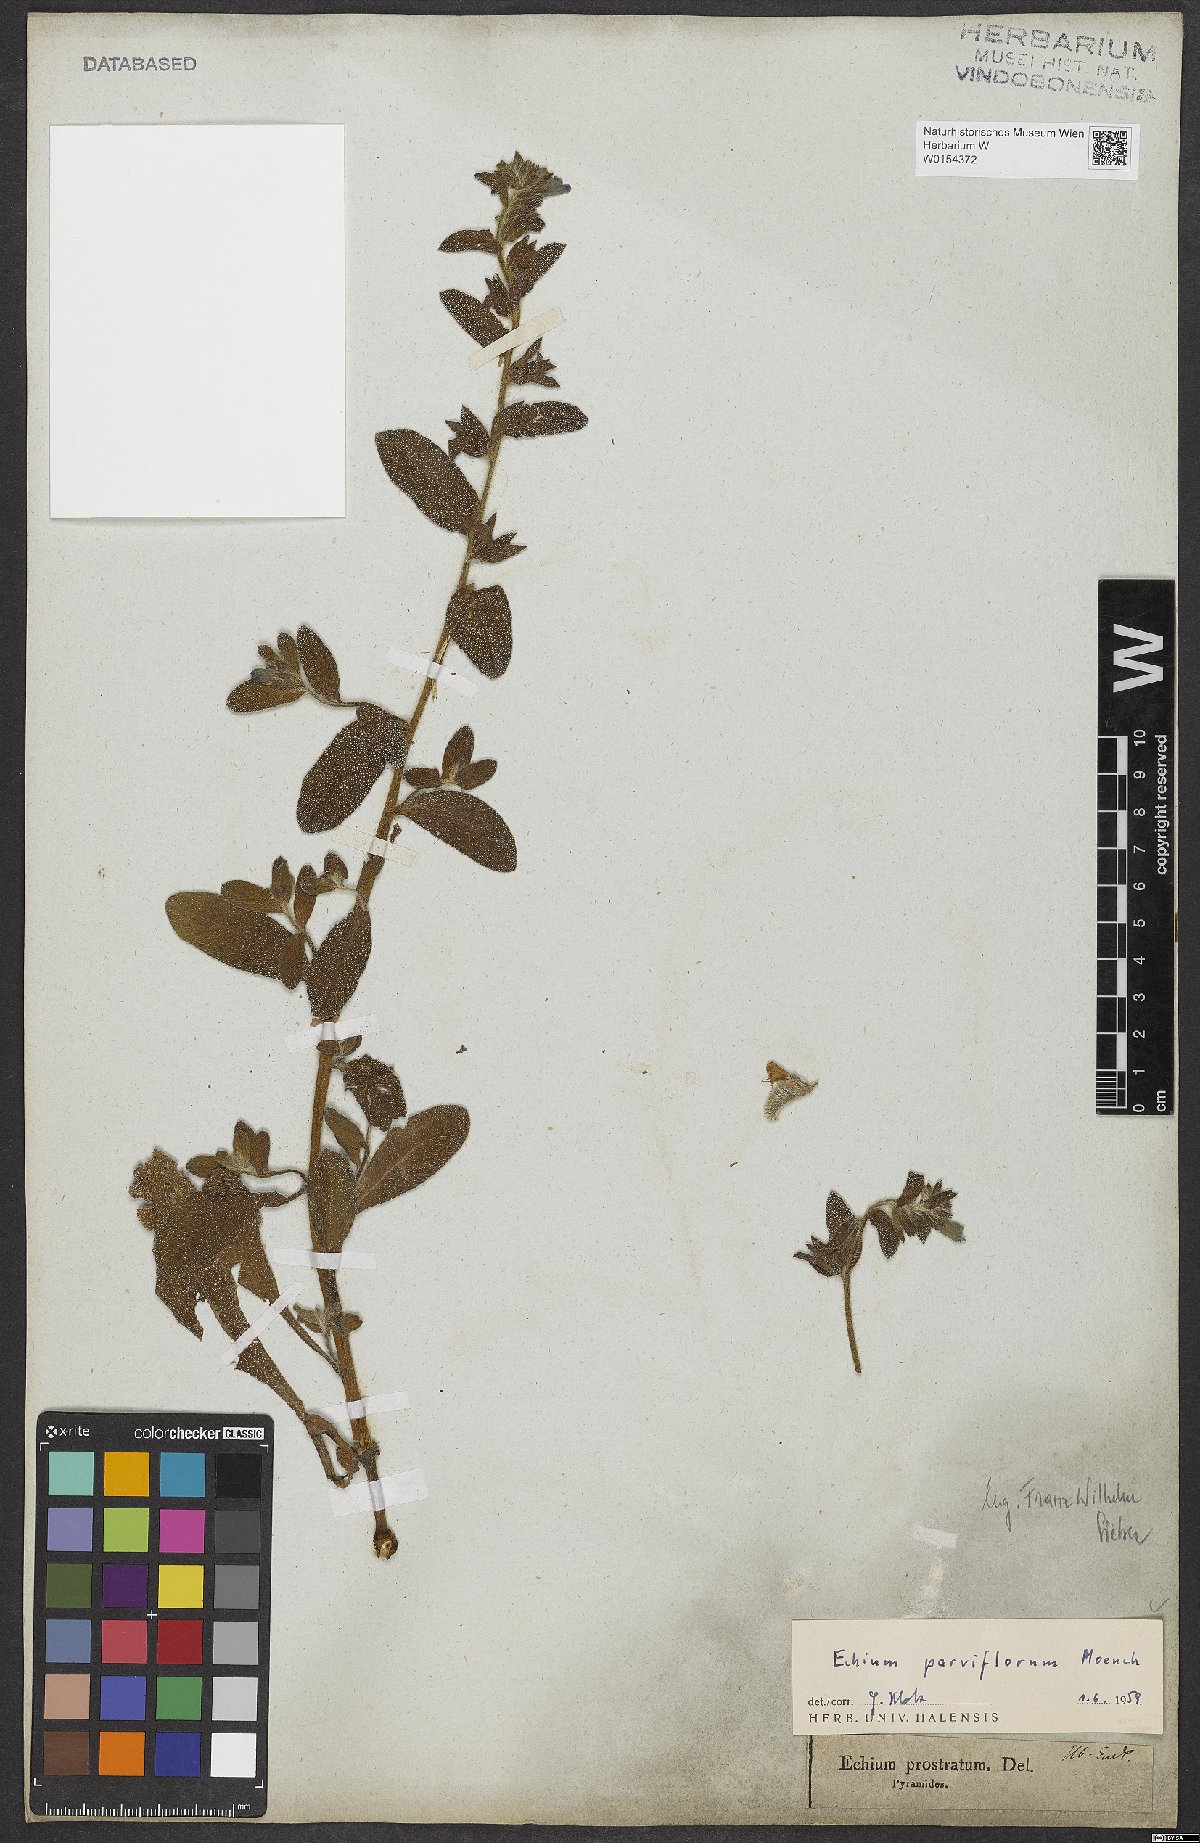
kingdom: Plantae
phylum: Tracheophyta
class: Magnoliopsida
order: Boraginales
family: Boraginaceae
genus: Echium
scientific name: Echium parviflorum
